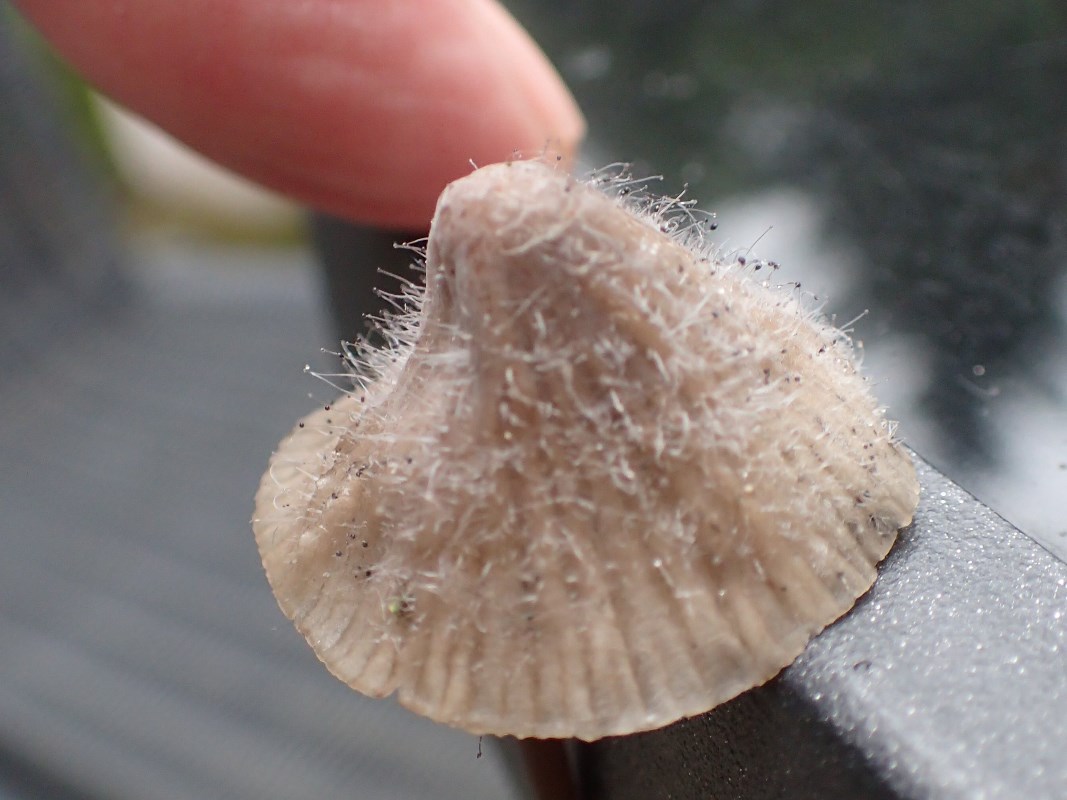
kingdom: Fungi
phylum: Mucoromycota
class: Mucoromycetes
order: Mucorales
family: Phycomycetaceae
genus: Spinellus
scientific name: Spinellus fusiger
